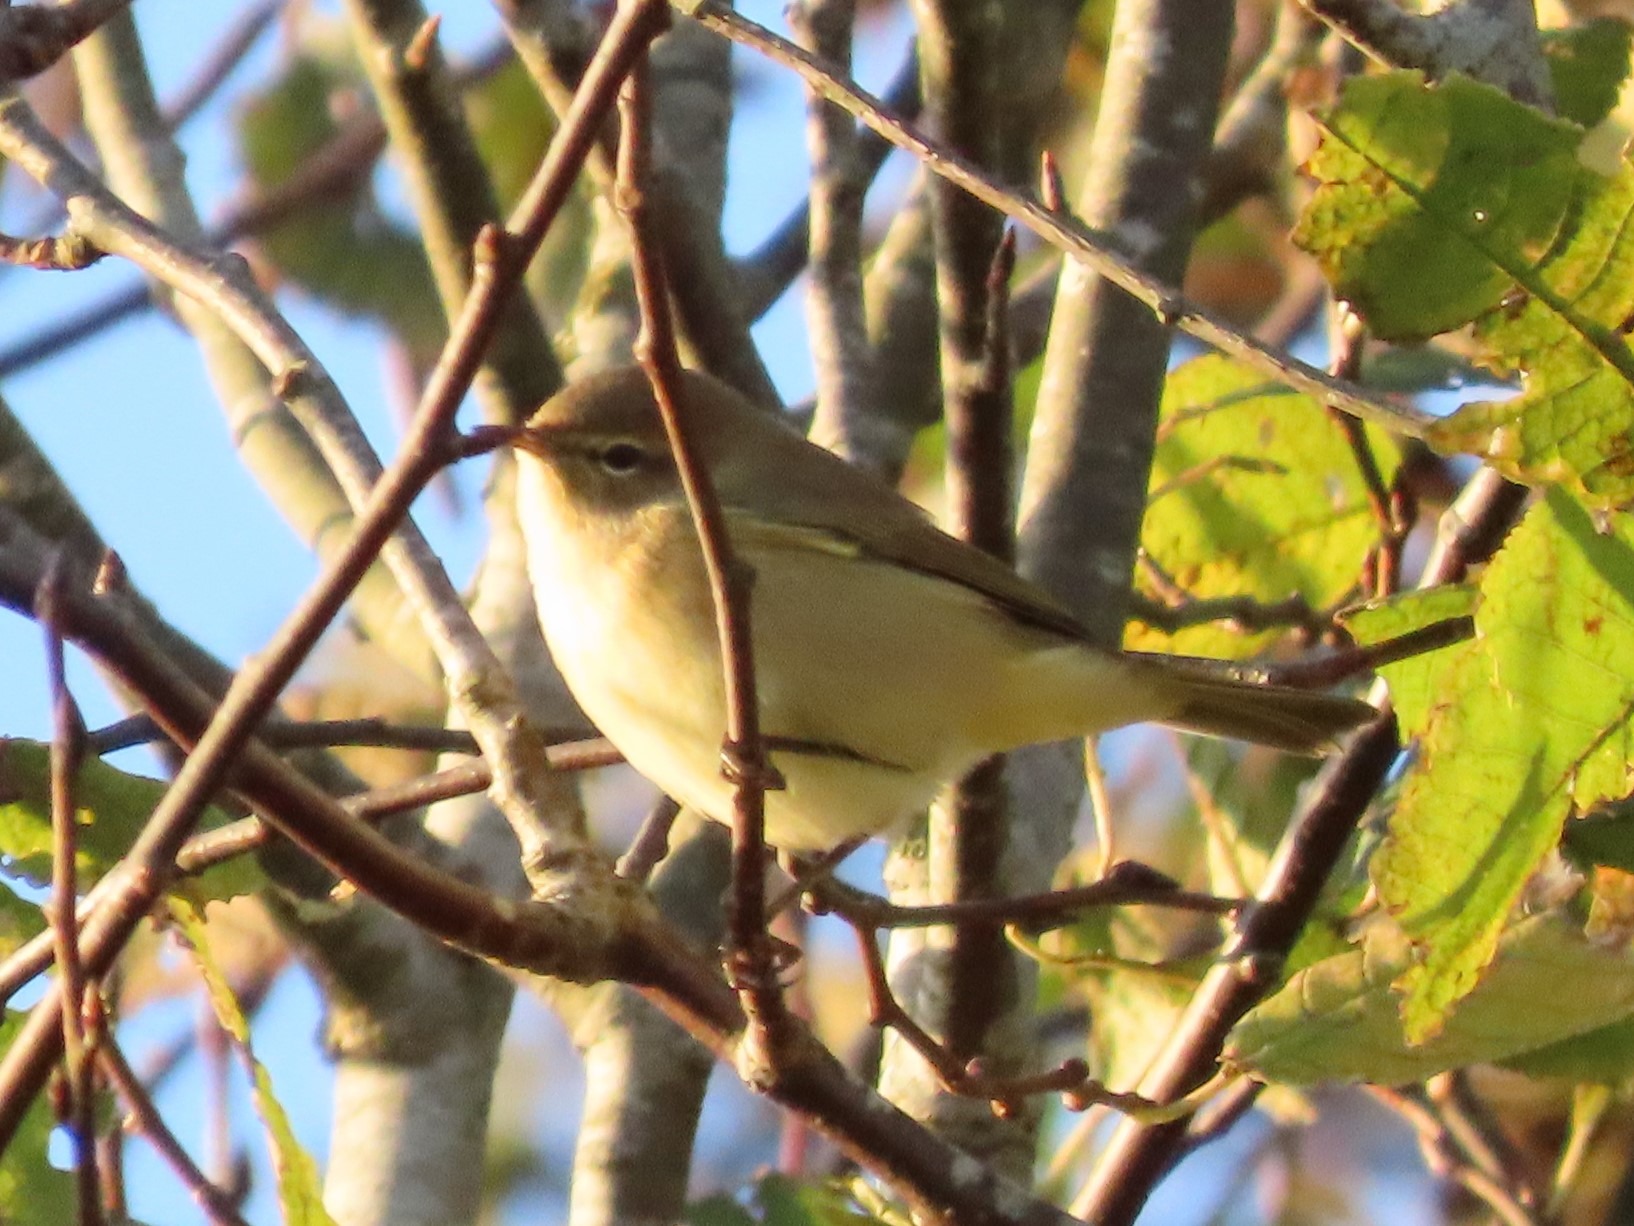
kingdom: Animalia
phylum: Chordata
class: Aves
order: Passeriformes
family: Phylloscopidae
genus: Phylloscopus
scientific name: Phylloscopus collybita
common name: Gransanger
